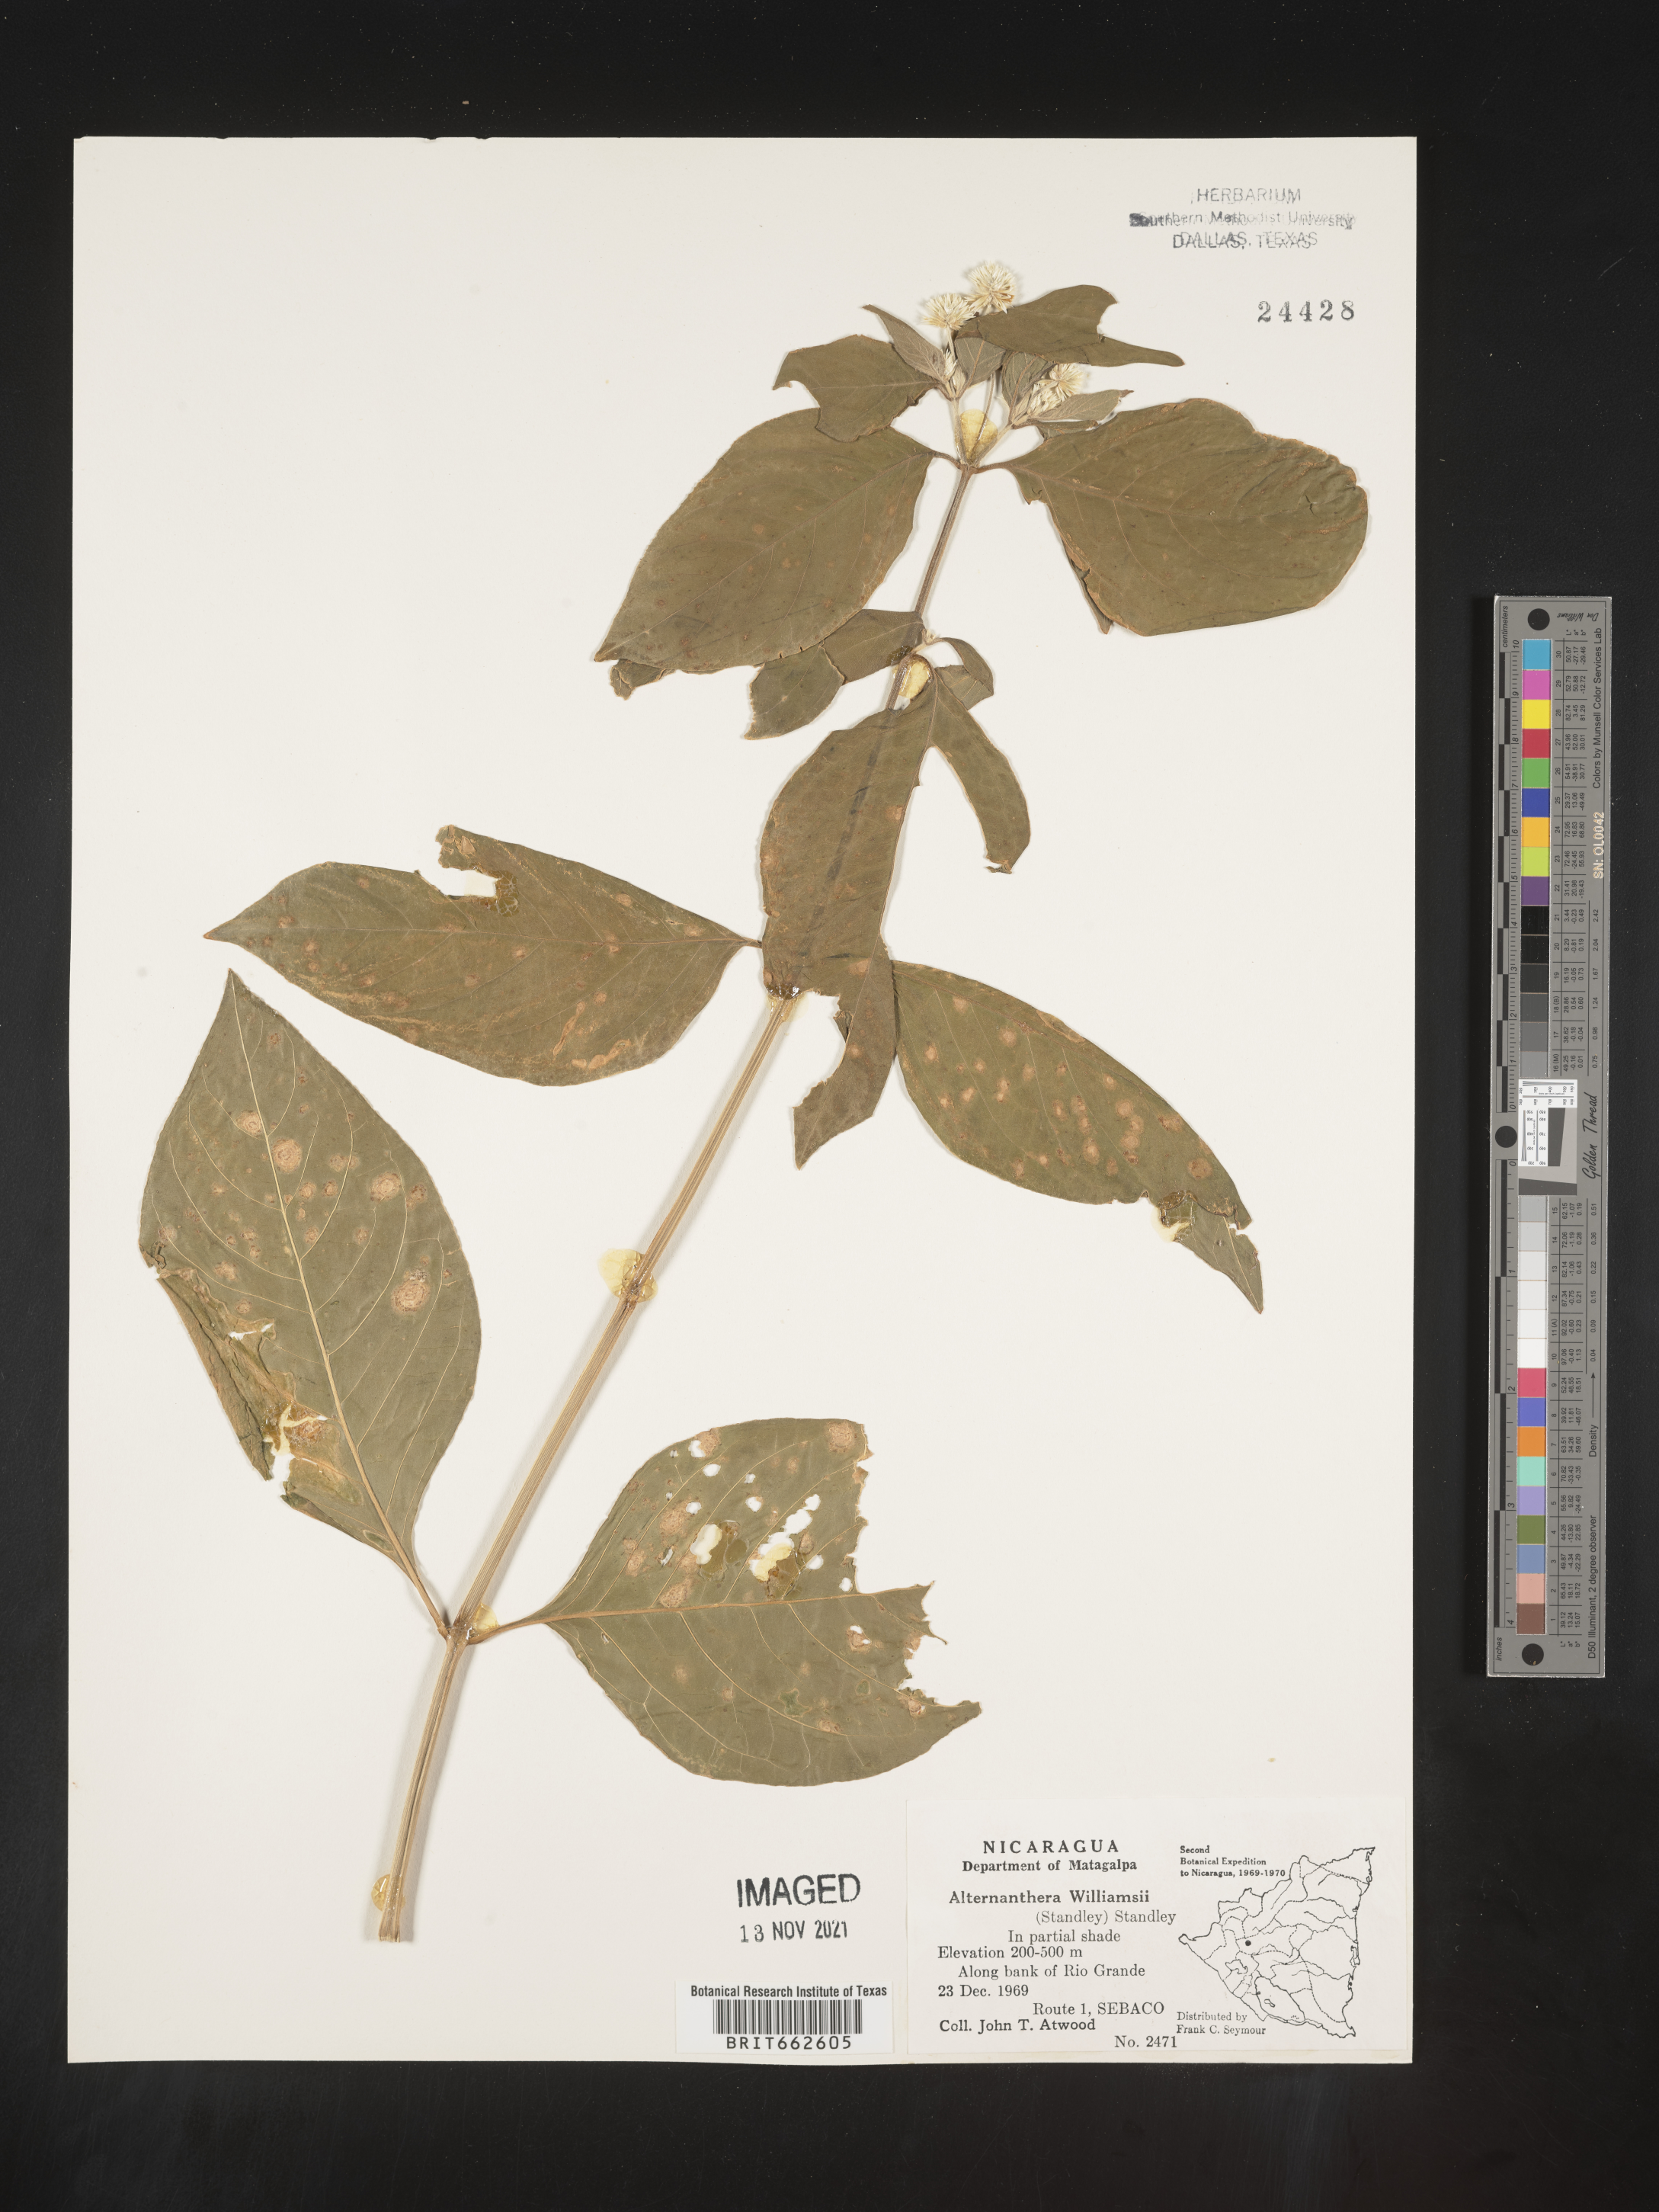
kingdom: Plantae
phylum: Tracheophyta
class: Magnoliopsida
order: Caryophyllales
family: Amaranthaceae
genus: Alternanthera
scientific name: Alternanthera
